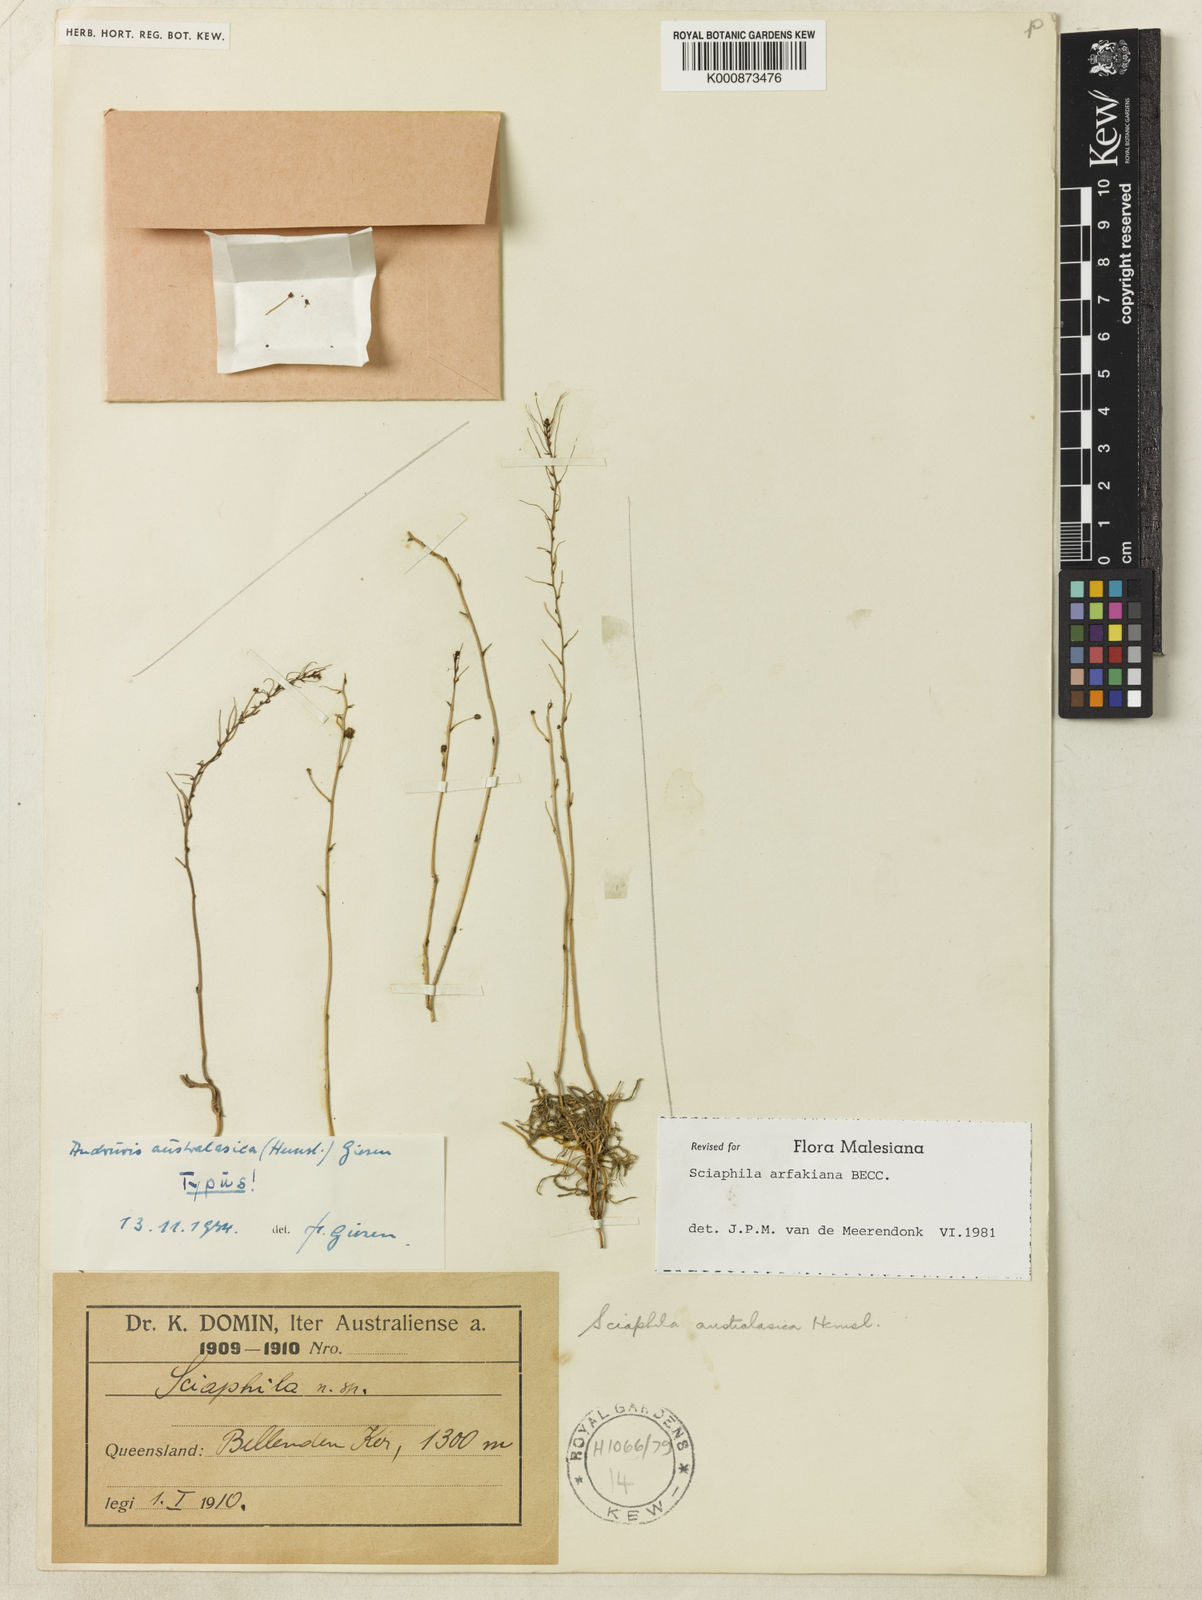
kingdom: Plantae
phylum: Tracheophyta
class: Liliopsida
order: Pandanales
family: Triuridaceae
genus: Sciaphila
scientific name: Sciaphila arfakiana
